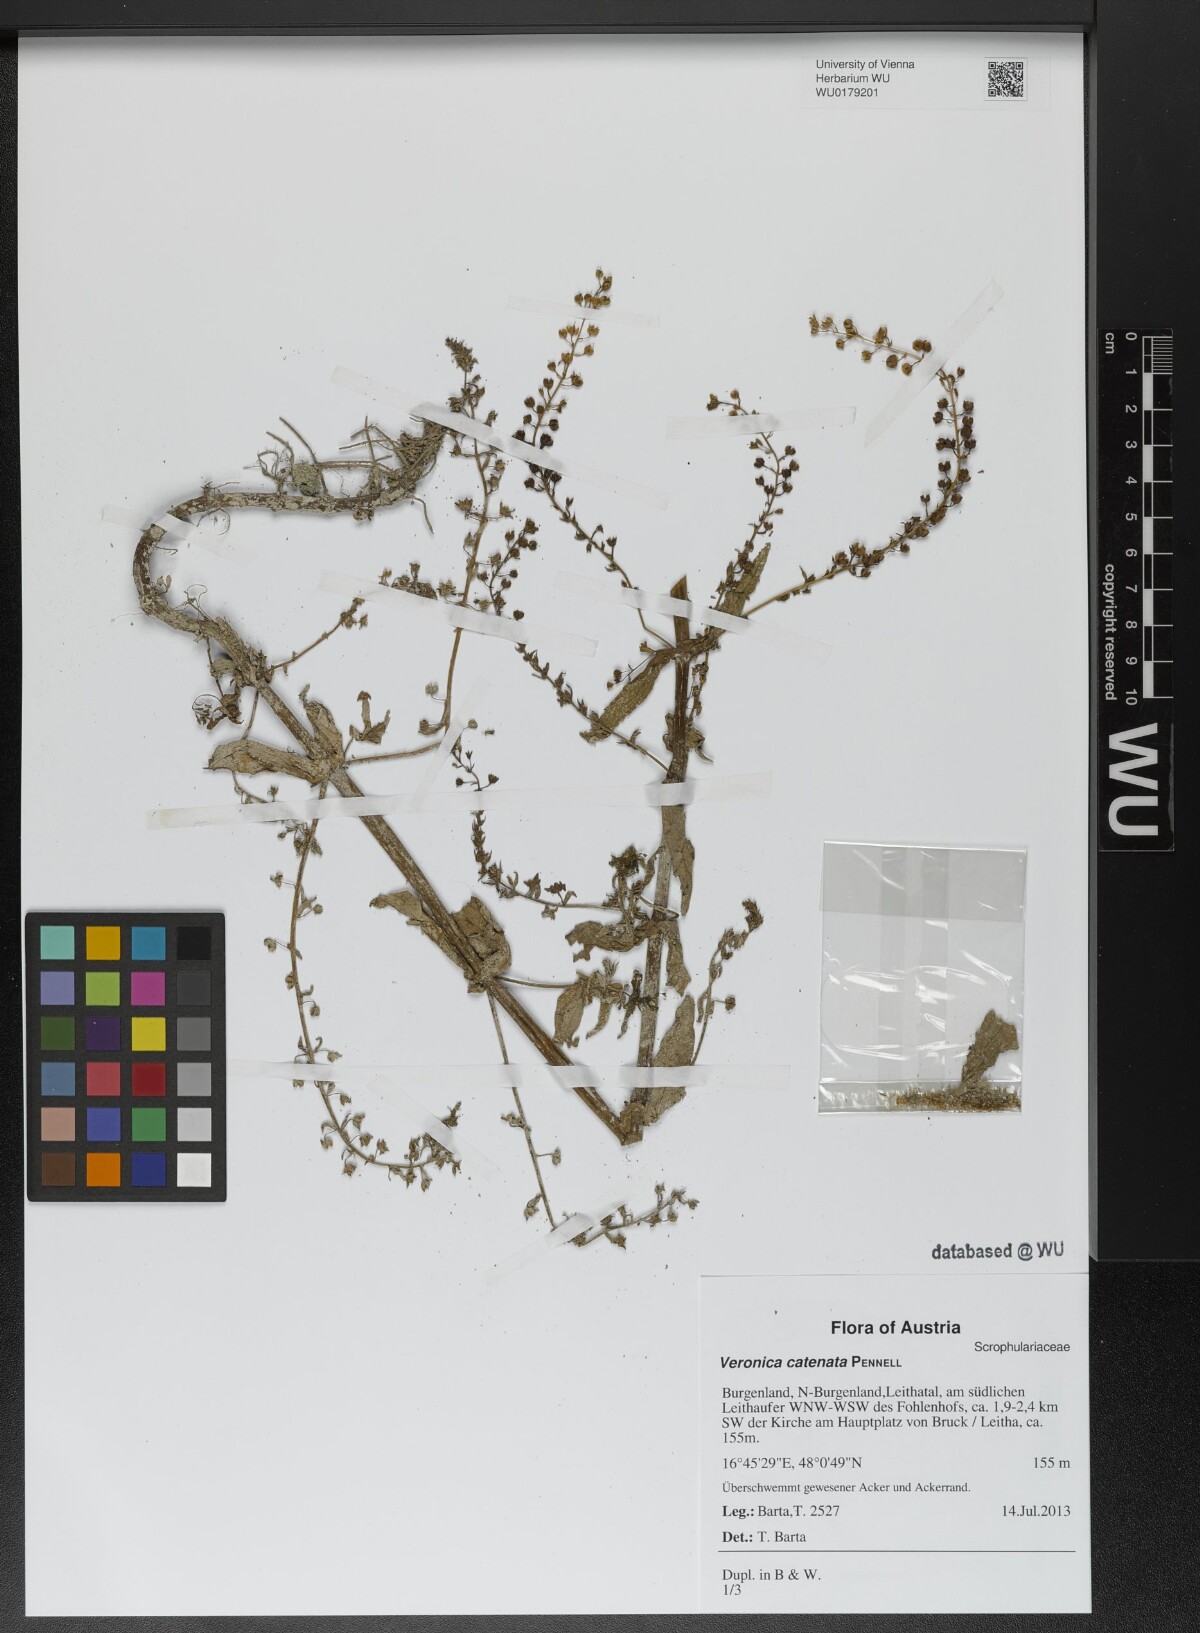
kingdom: Plantae
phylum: Tracheophyta
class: Magnoliopsida
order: Lamiales
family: Plantaginaceae
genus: Veronica
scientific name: Veronica catenata
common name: Pink water-speedwell
